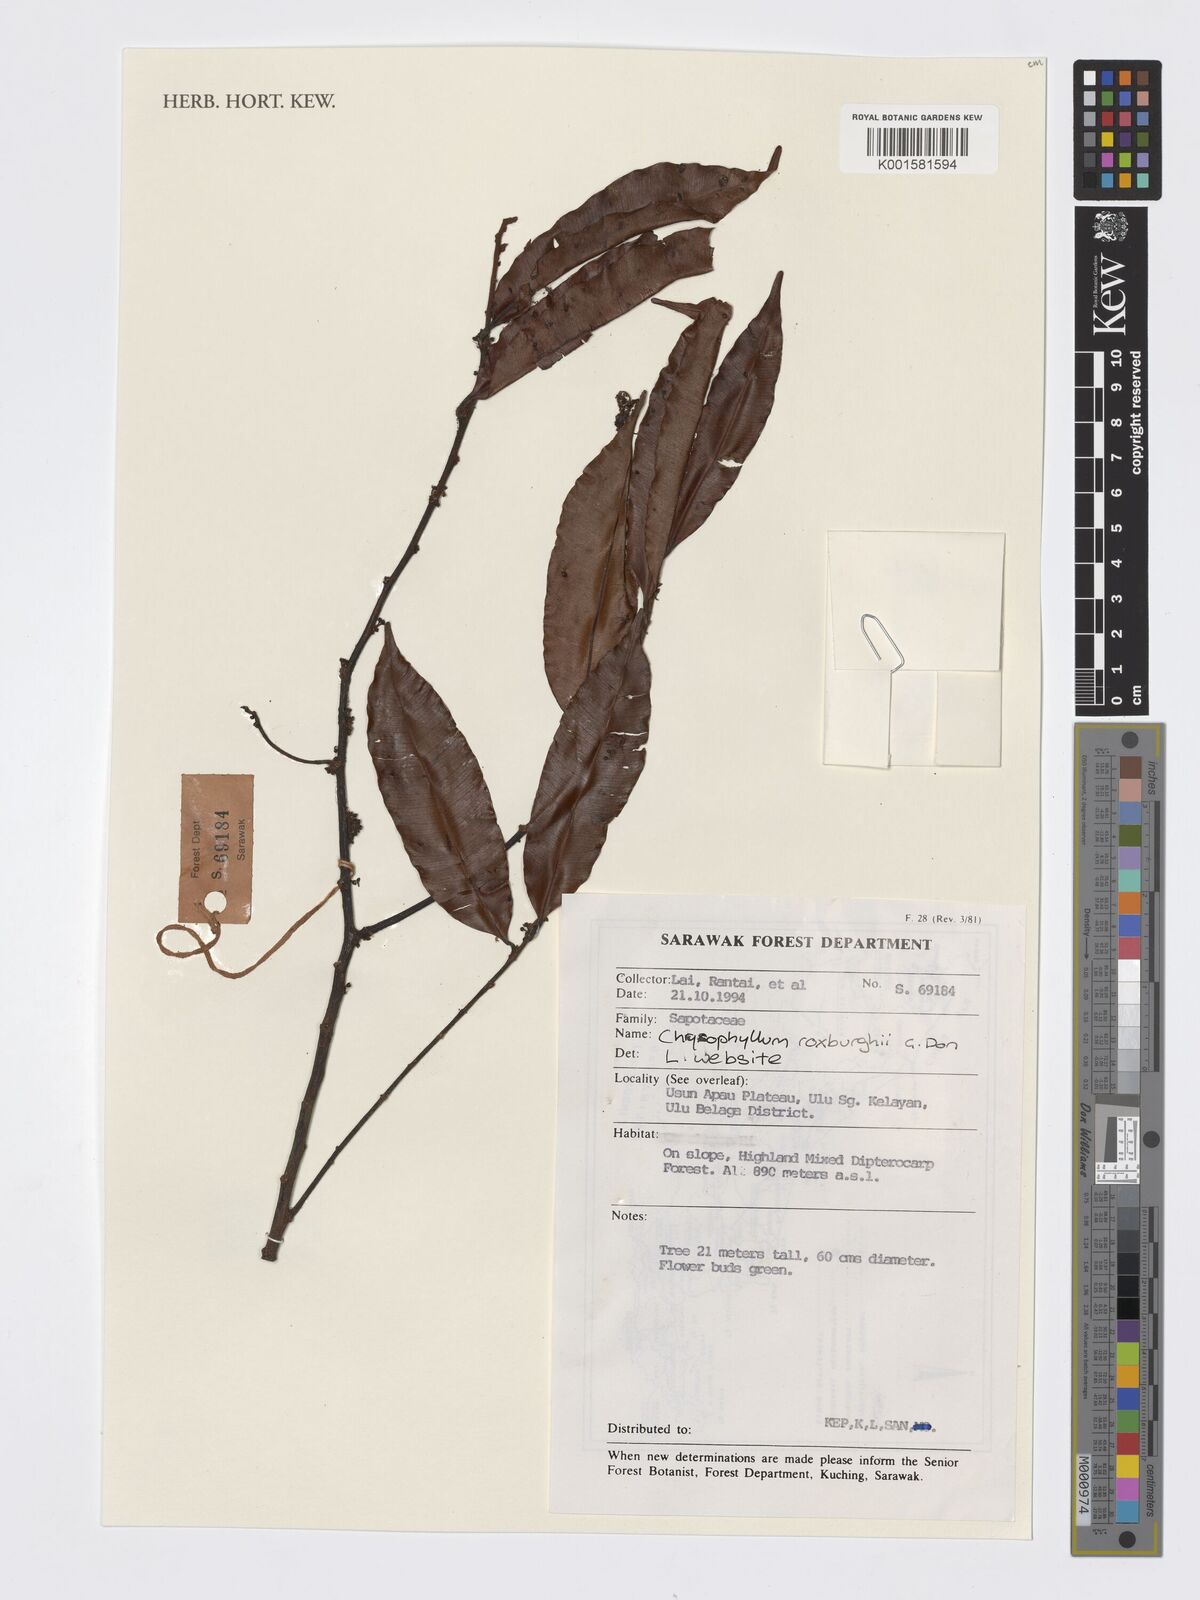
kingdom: Plantae
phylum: Tracheophyta
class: Magnoliopsida
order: Ericales
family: Sapotaceae
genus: Donella
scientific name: Donella lanceolata
